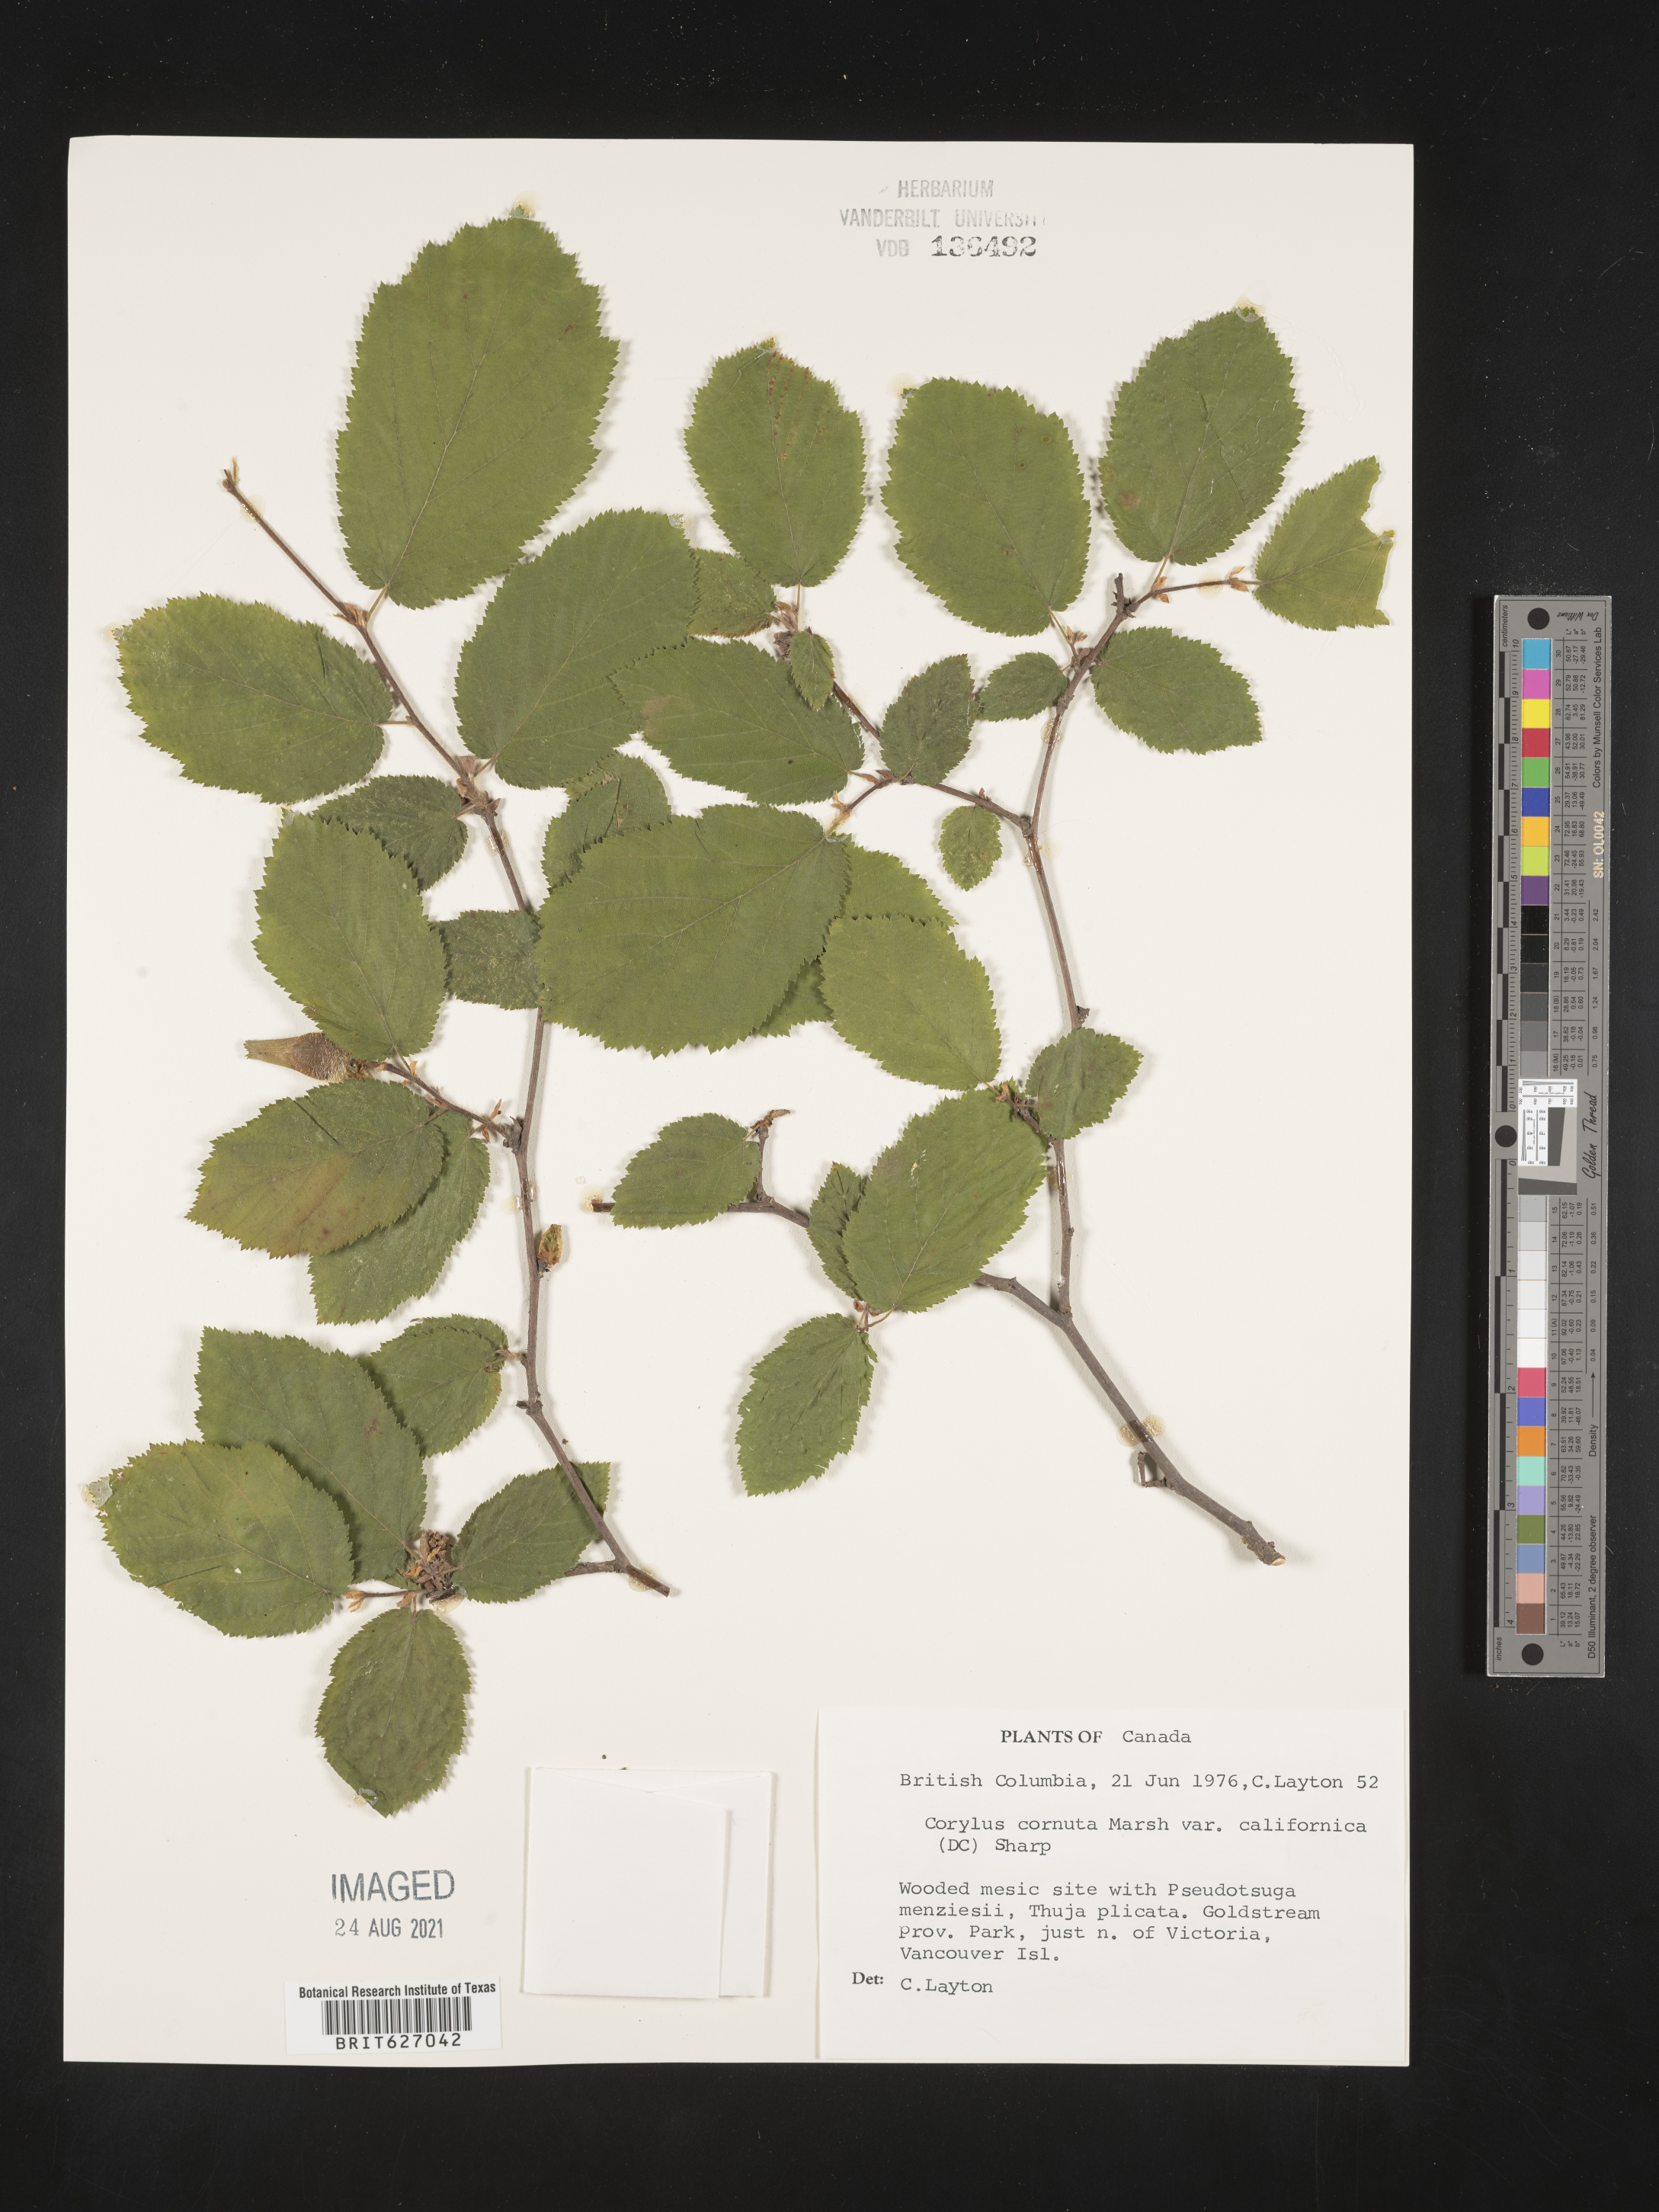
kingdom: Plantae
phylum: Tracheophyta
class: Magnoliopsida
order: Fagales
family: Betulaceae
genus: Corylus
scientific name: Corylus cornuta
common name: Beaked hazel
